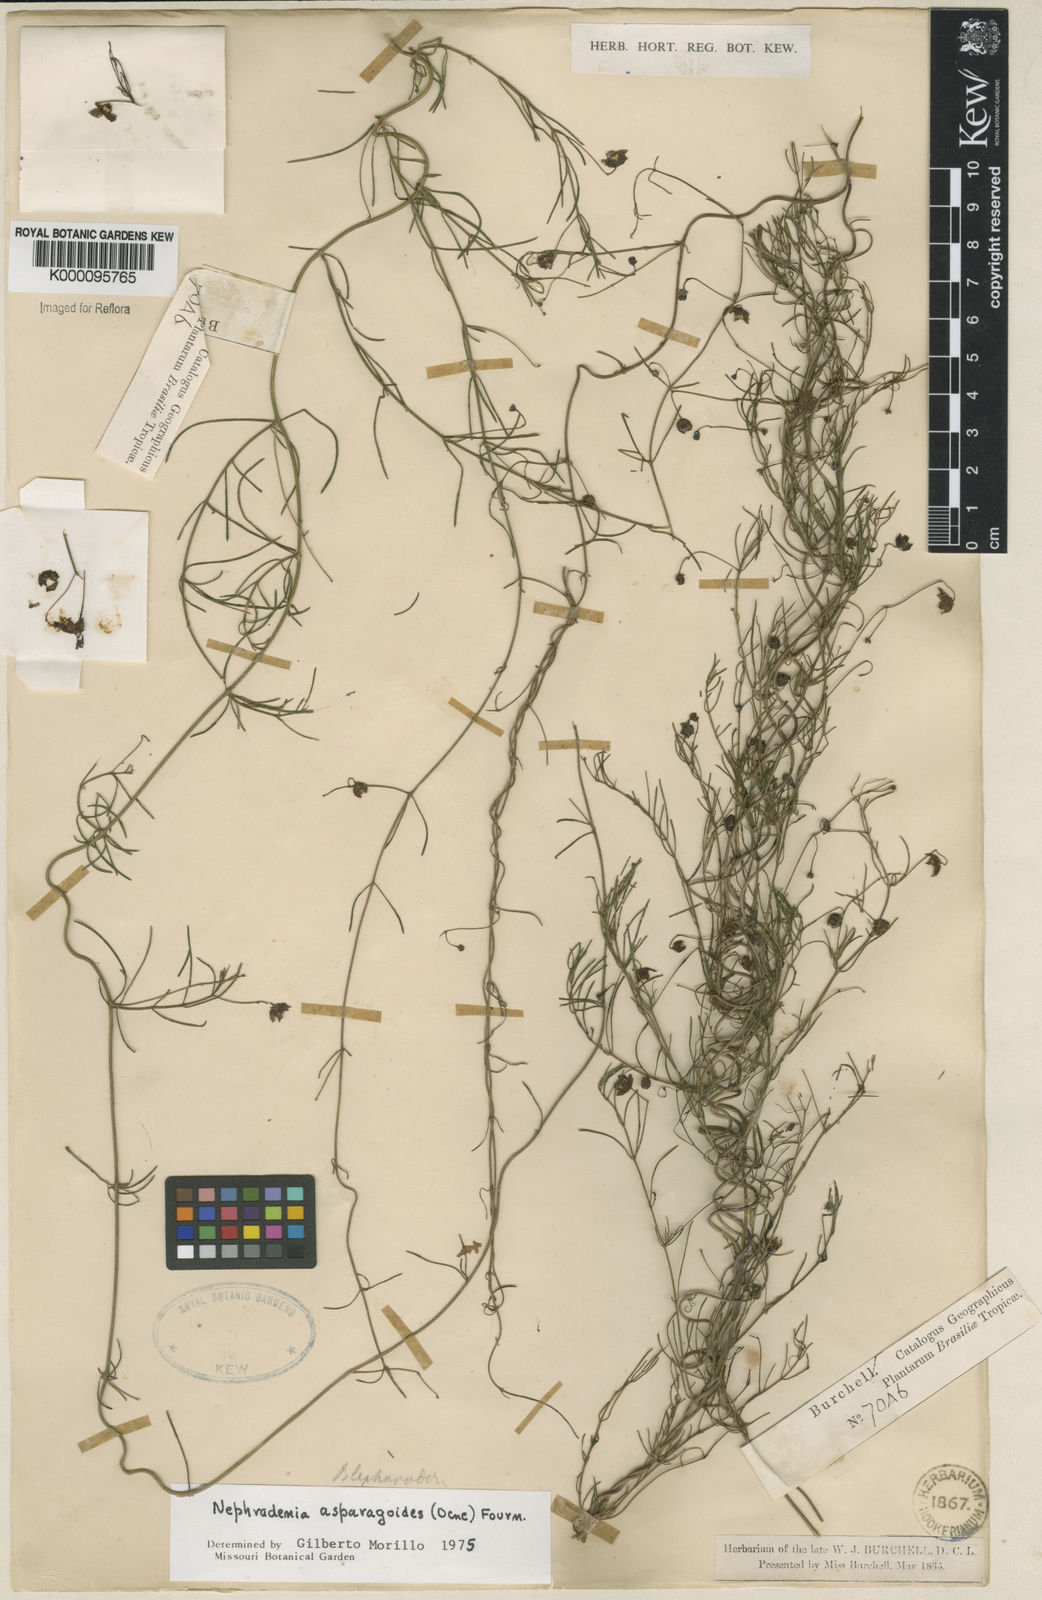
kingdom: Plantae
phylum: Tracheophyta
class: Magnoliopsida
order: Gentianales
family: Apocynaceae
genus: Nephradenia
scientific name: Nephradenia asparagoides
